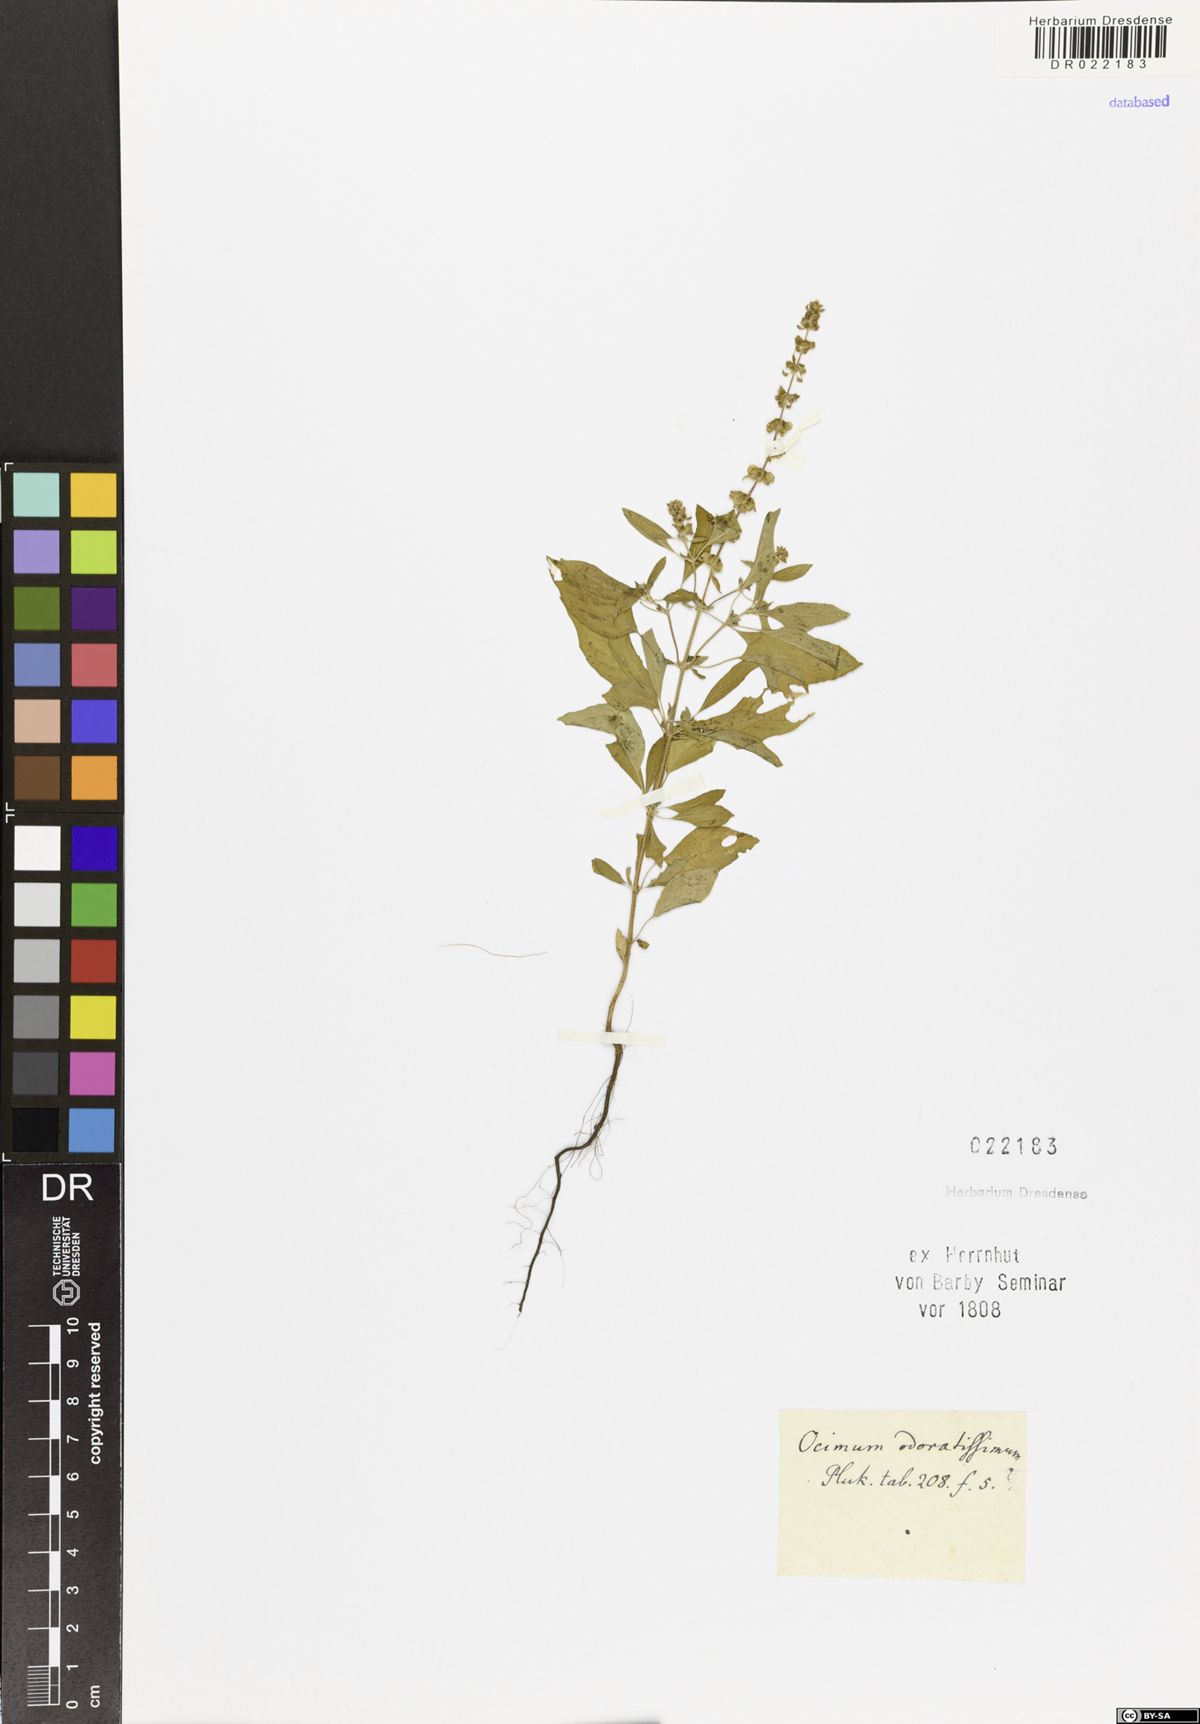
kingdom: Plantae
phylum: Tracheophyta
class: Magnoliopsida
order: Lamiales
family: Lamiaceae
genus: Ocimum
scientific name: Ocimum
